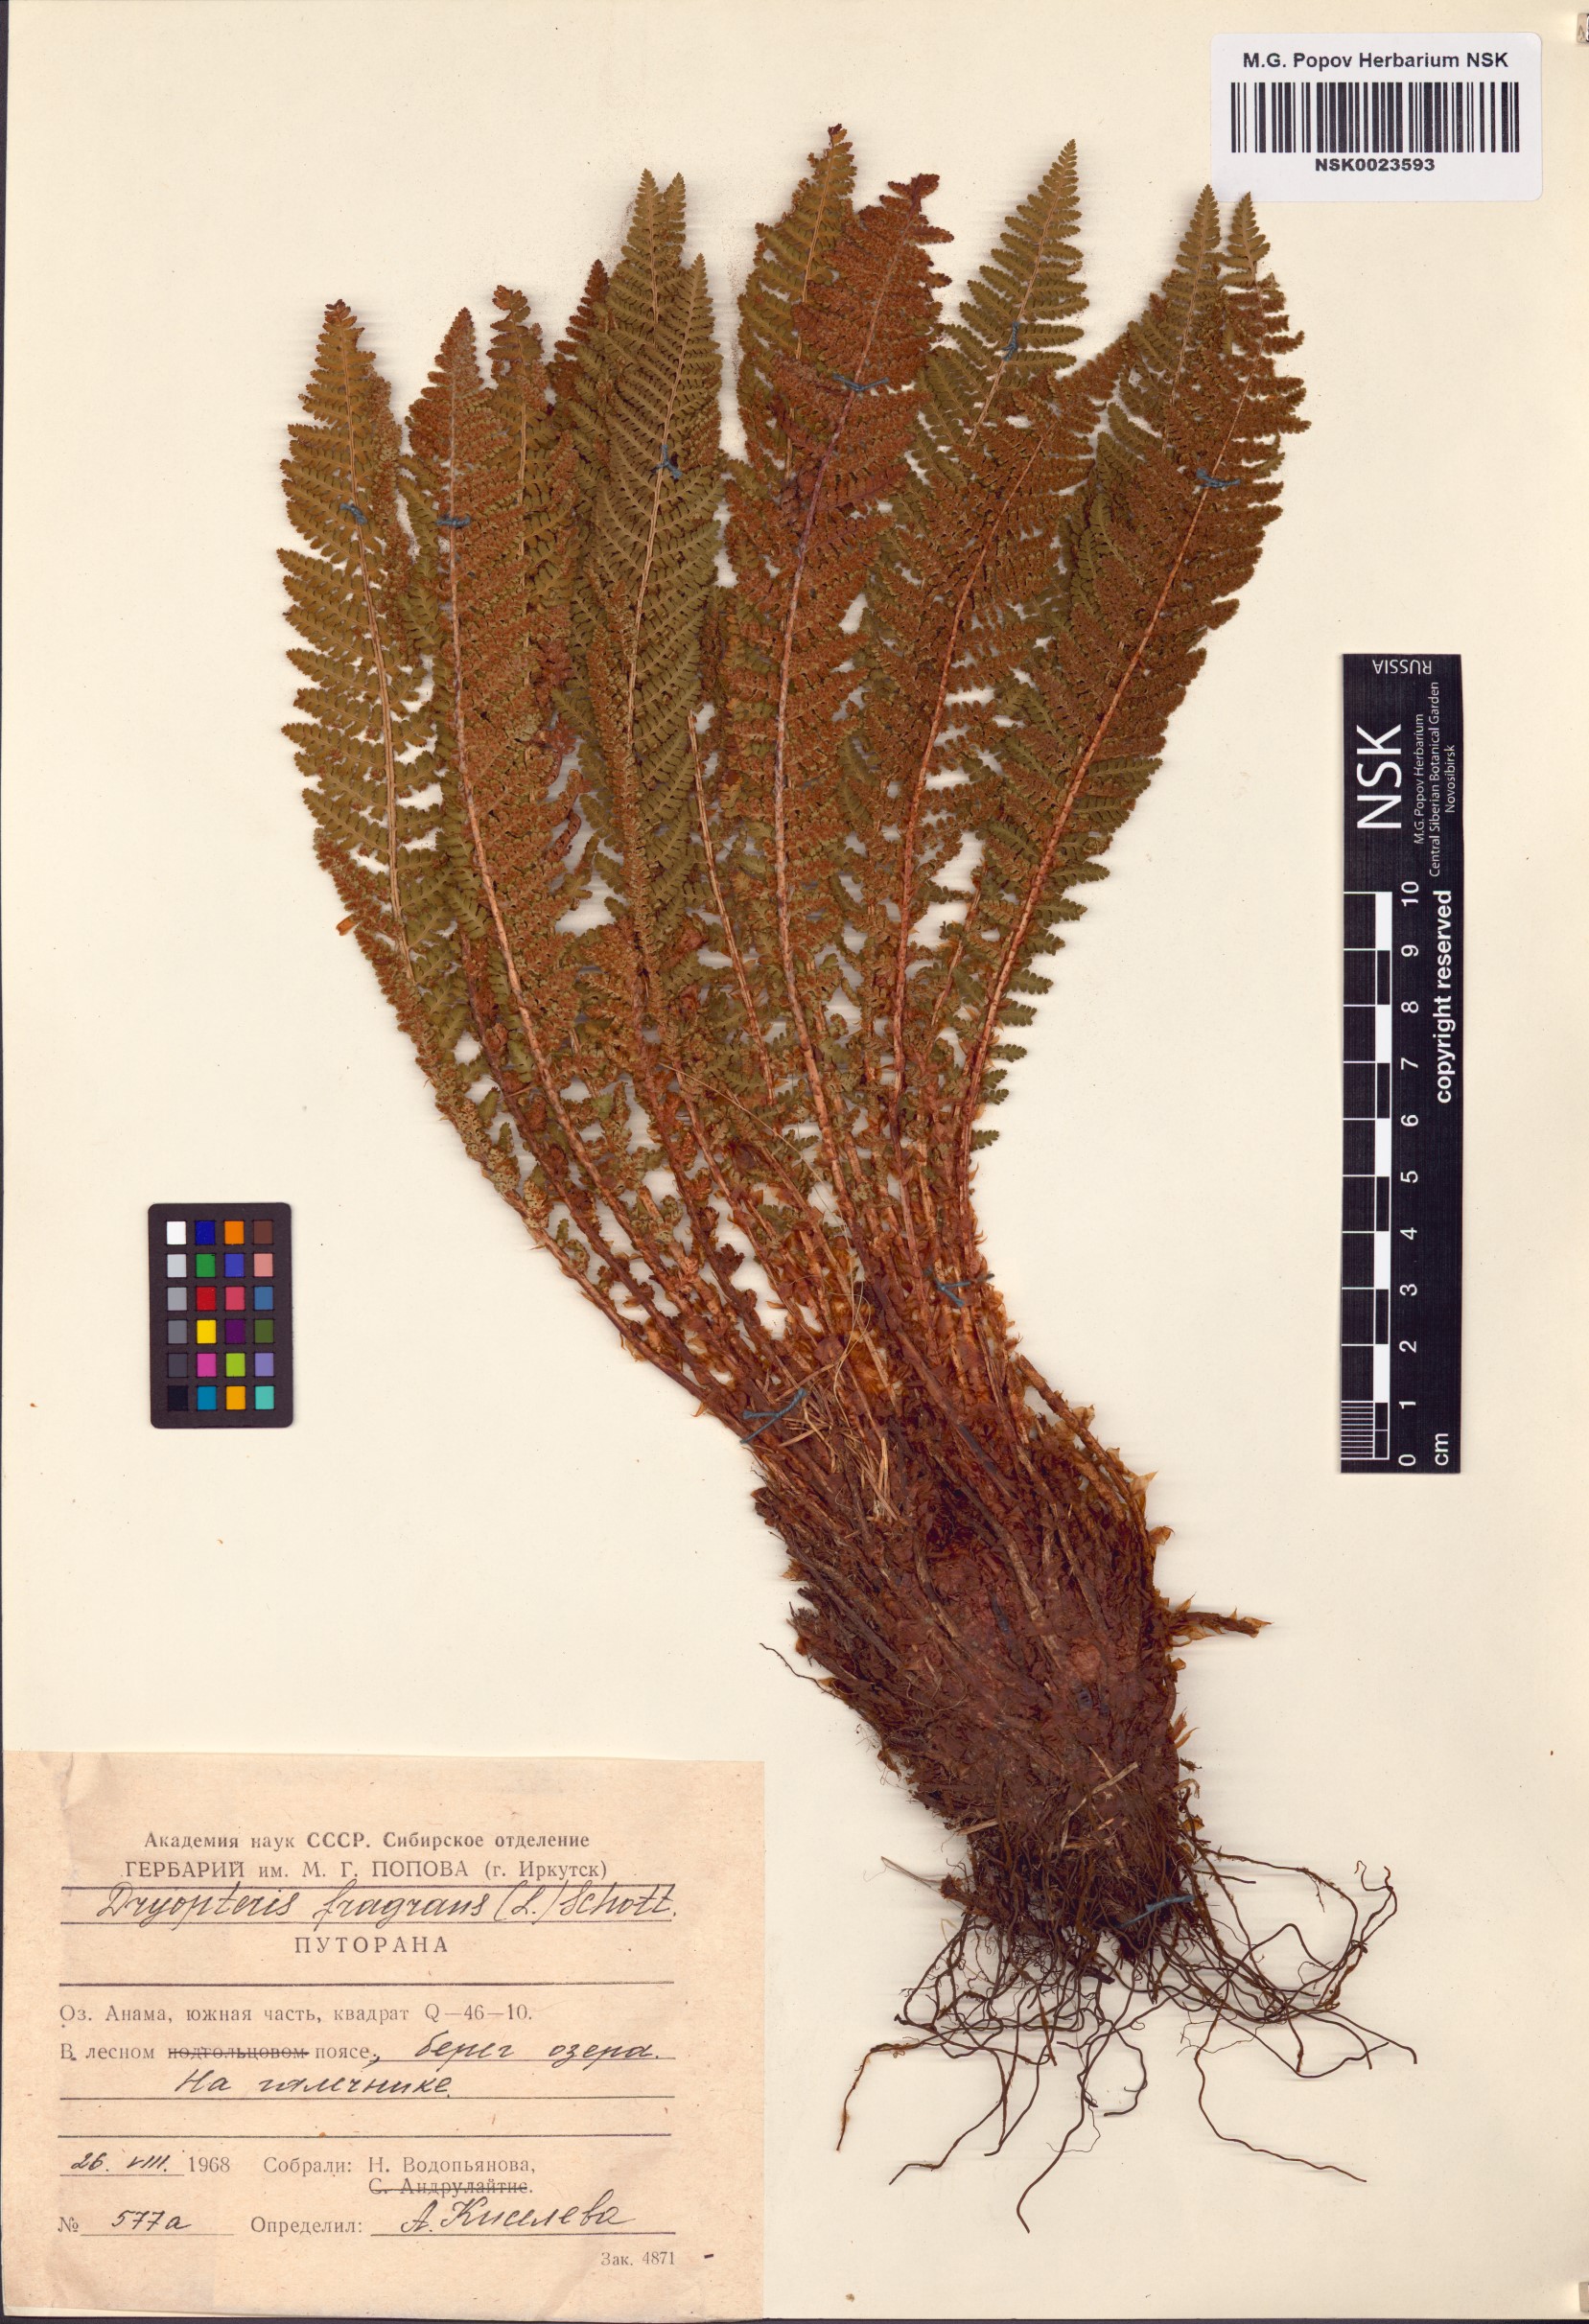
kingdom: Plantae
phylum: Tracheophyta
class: Polypodiopsida
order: Polypodiales
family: Dryopteridaceae
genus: Dryopteris
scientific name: Dryopteris fragrans
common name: Fragrant wood fern
